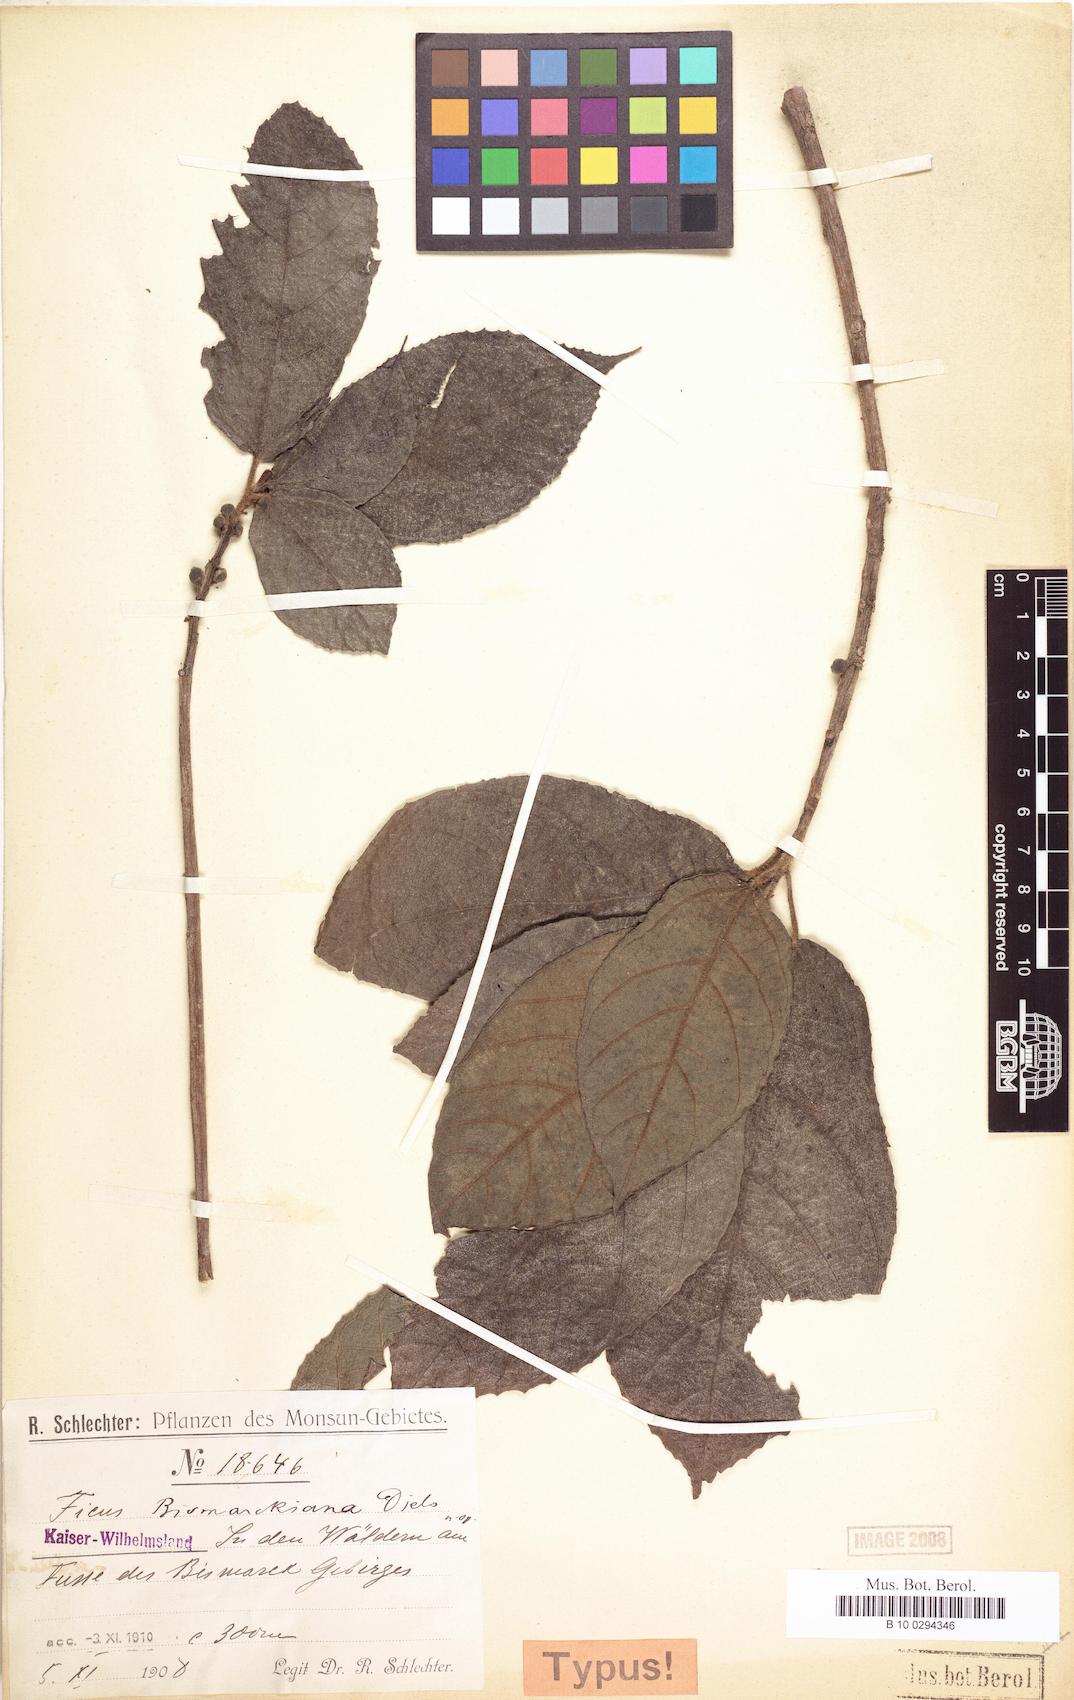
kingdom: Plantae
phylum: Tracheophyta
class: Magnoliopsida
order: Rosales
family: Moraceae
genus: Ficus
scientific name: Ficus gul
